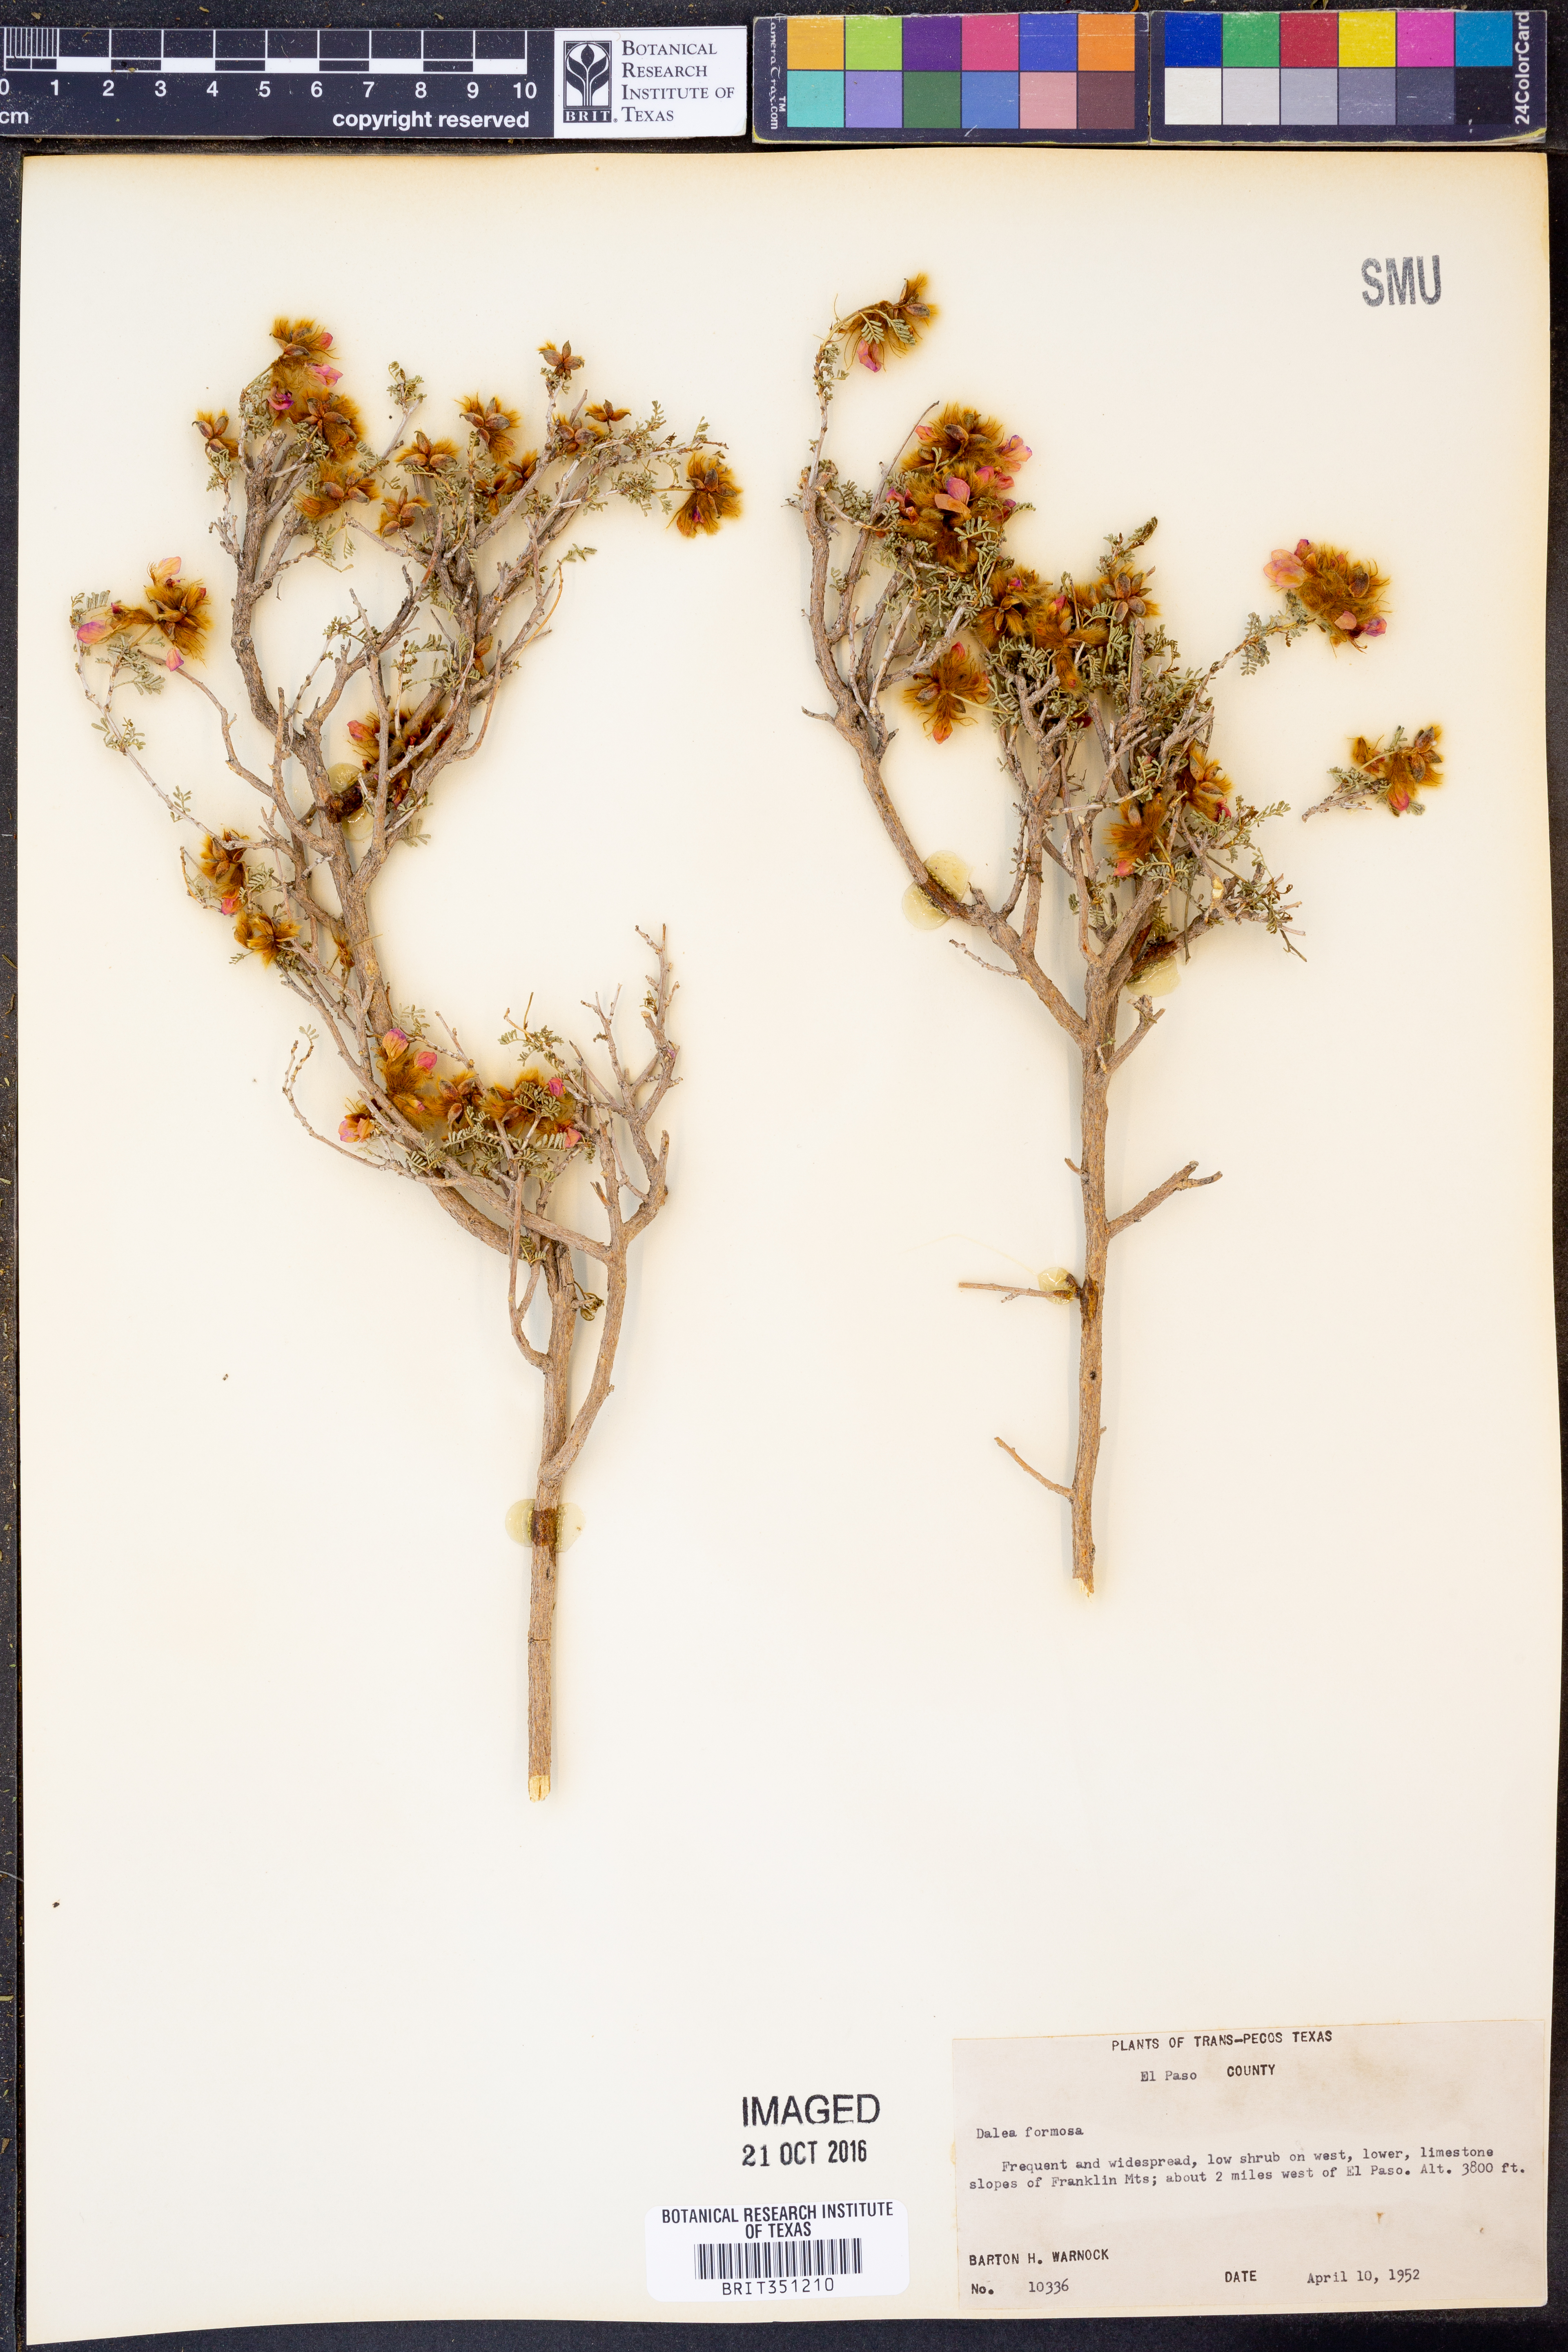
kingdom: Plantae
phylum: Tracheophyta
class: Magnoliopsida
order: Fabales
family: Fabaceae
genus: Dalea
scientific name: Dalea formosa
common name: Feather-plume dalea
